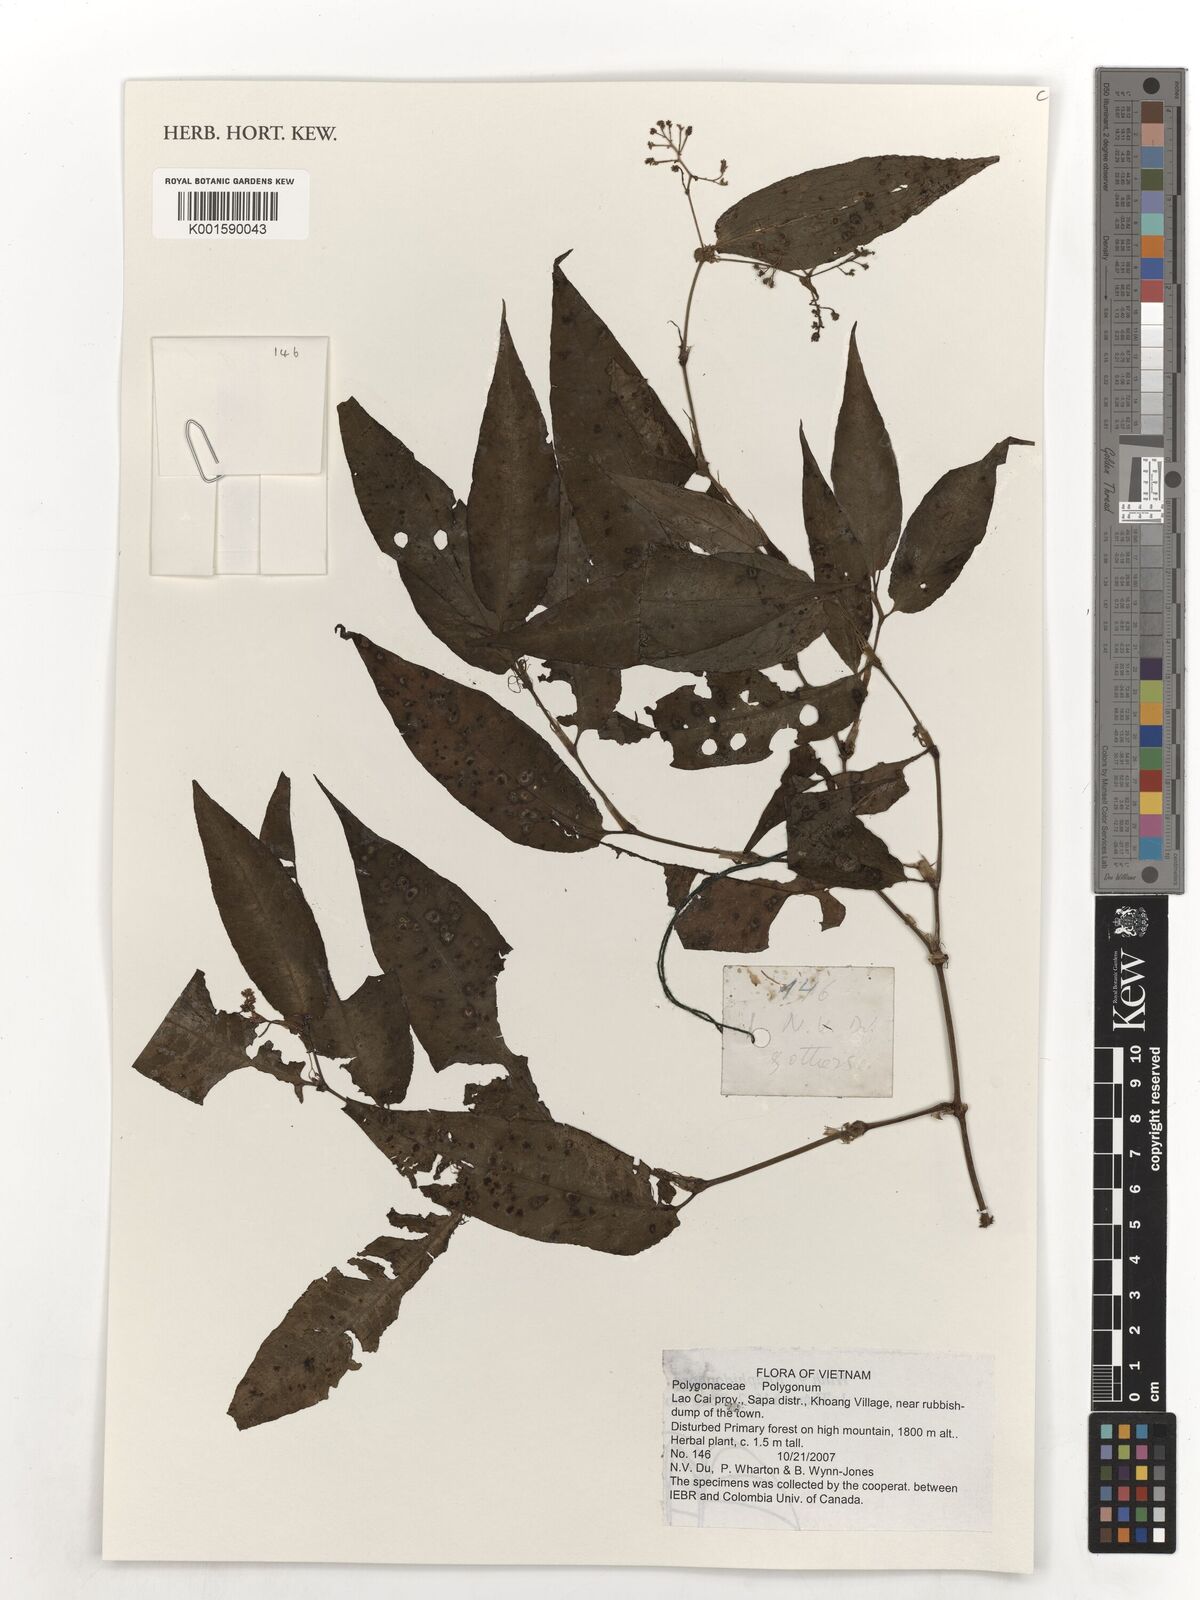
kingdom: Plantae
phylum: Tracheophyta
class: Magnoliopsida
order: Caryophyllales
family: Polygonaceae
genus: Polygonum
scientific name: Polygonum
